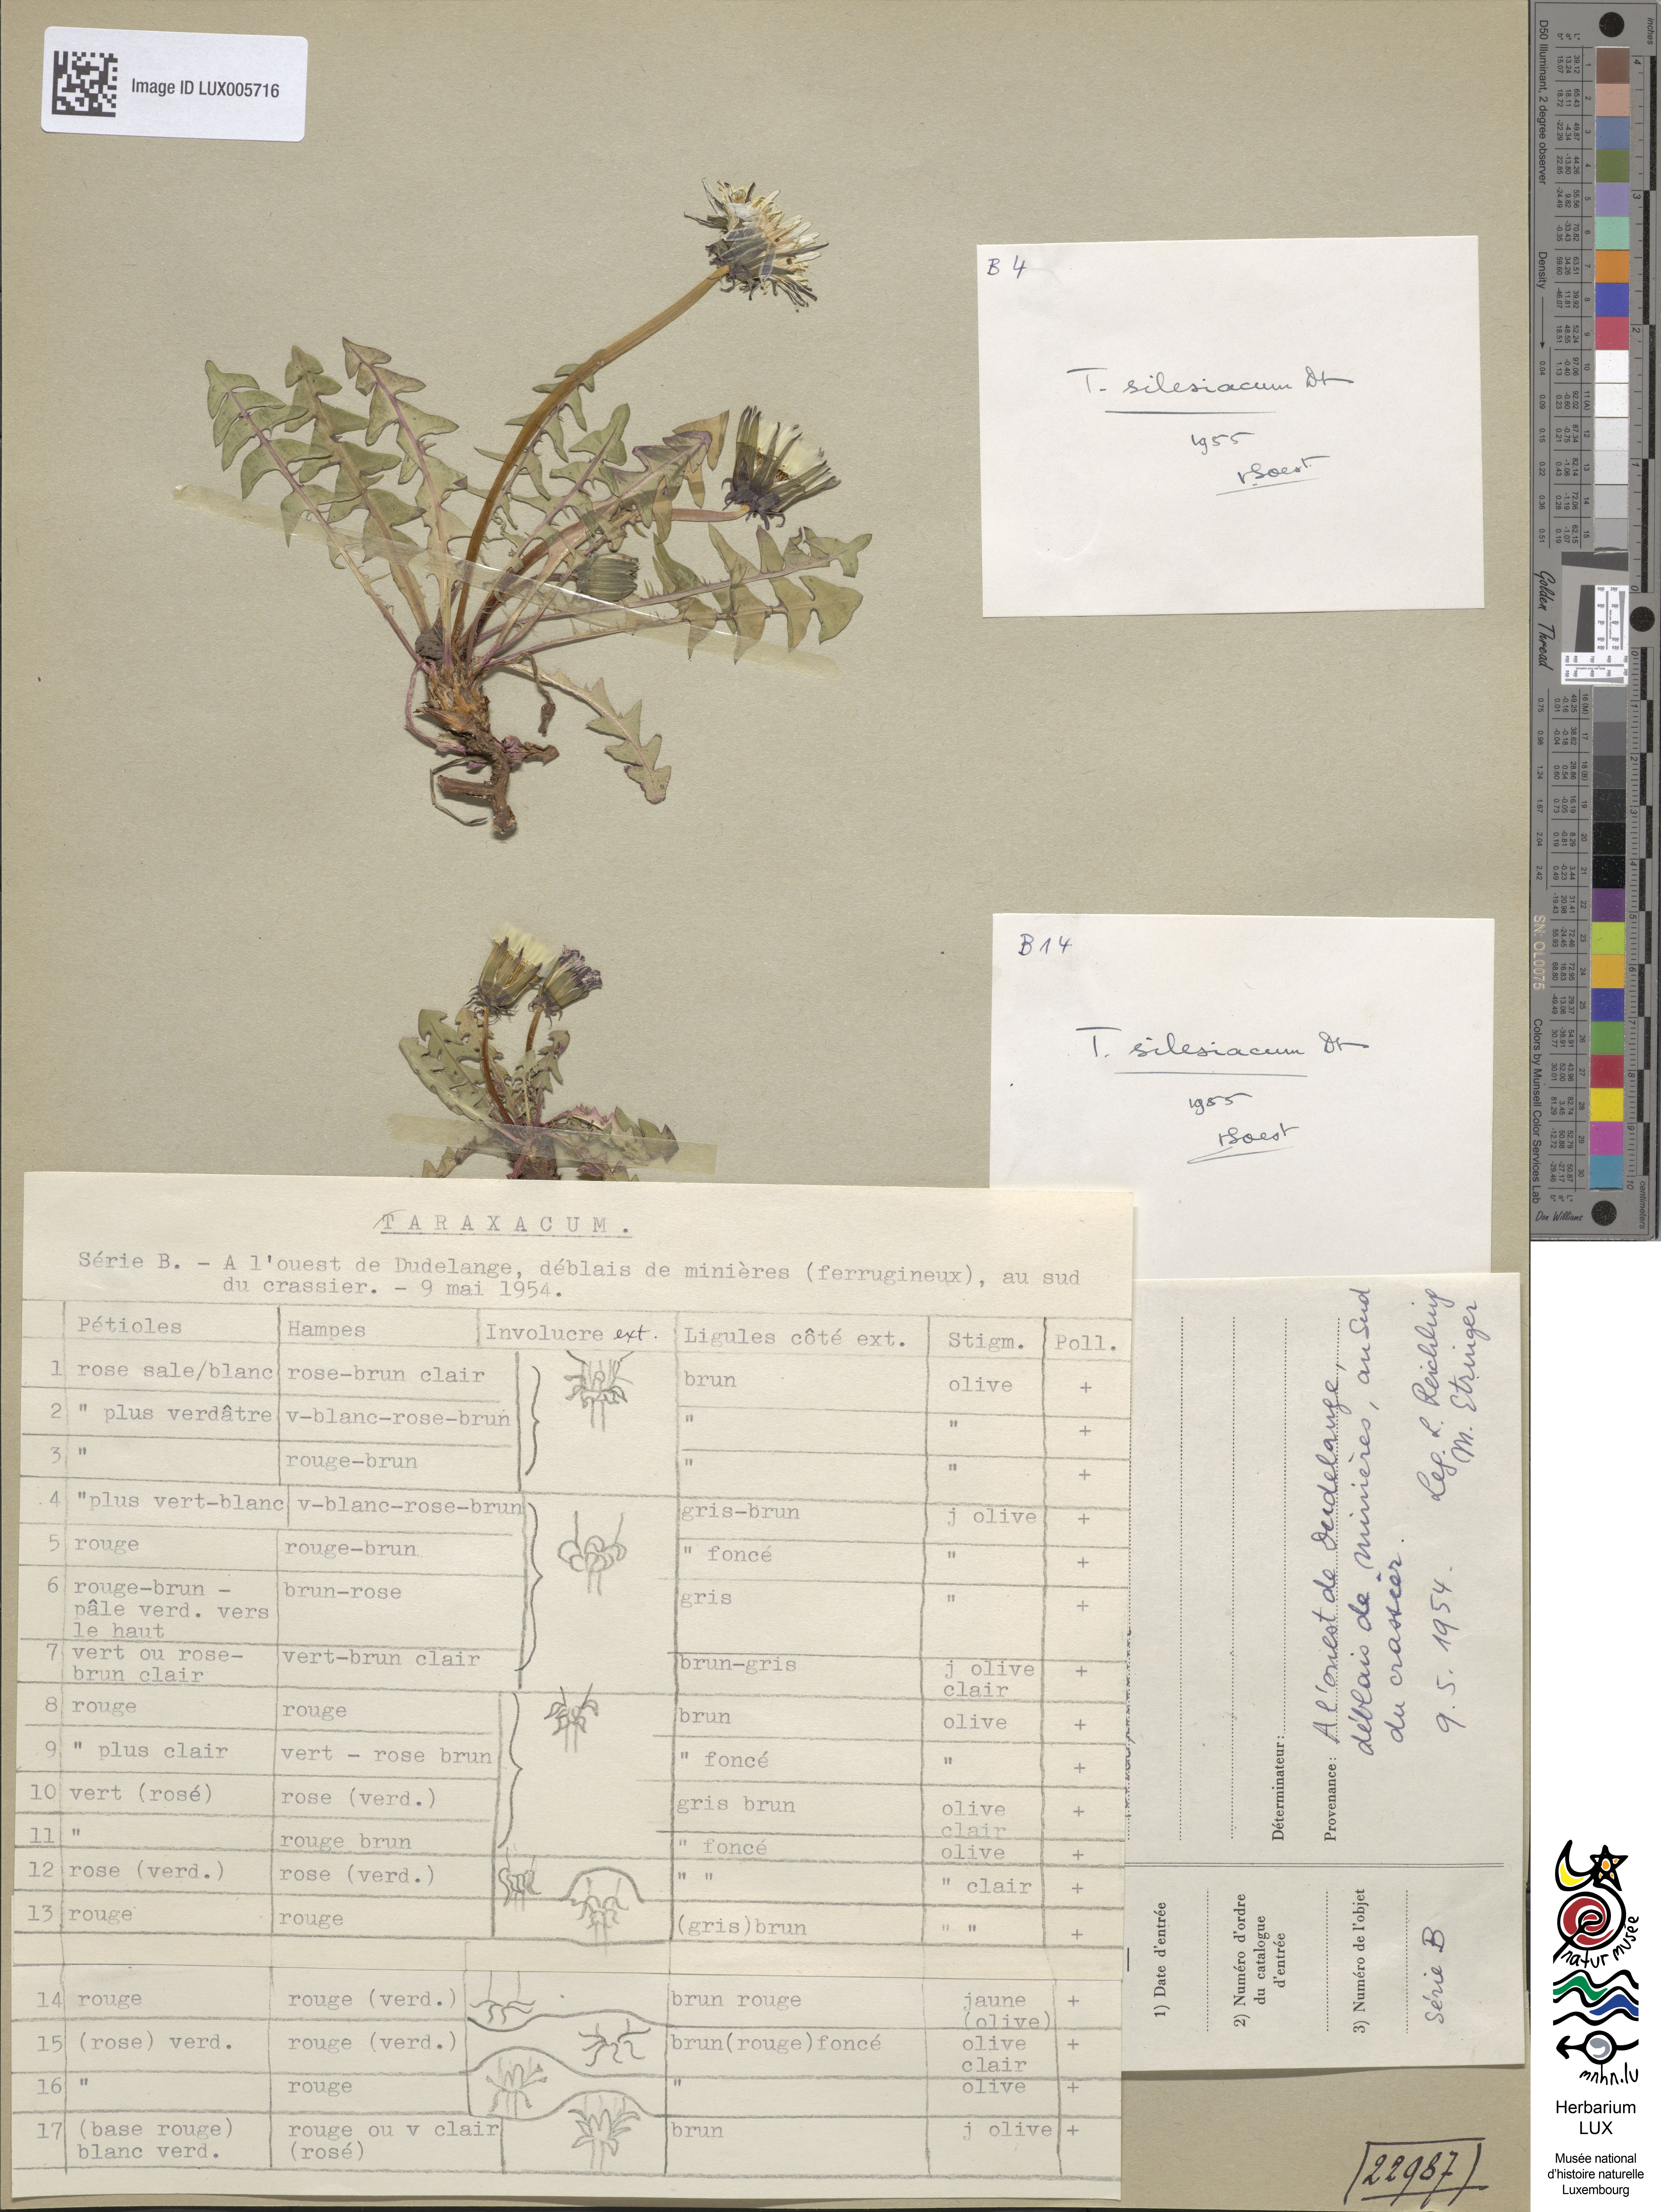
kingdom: Plantae
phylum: Tracheophyta
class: Magnoliopsida
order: Asterales
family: Asteraceae
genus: Taraxacum
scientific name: Taraxacum parnassicum
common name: Parnassus dandelion
